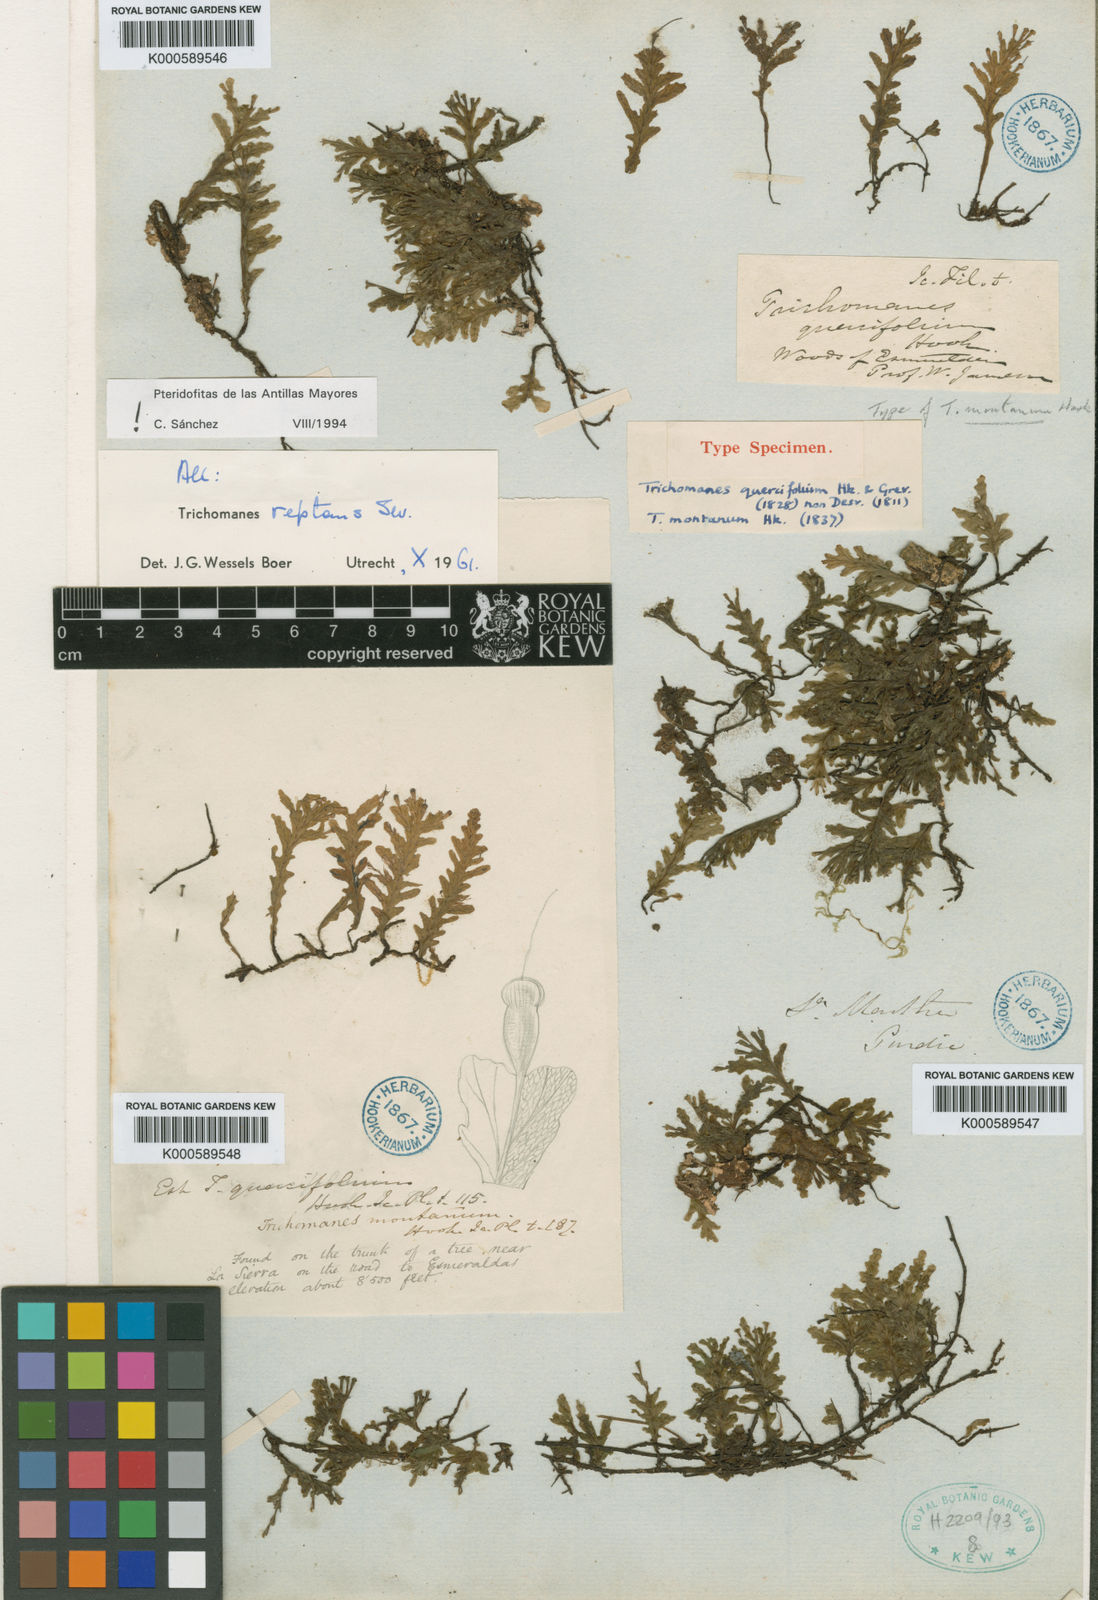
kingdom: Plantae
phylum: Tracheophyta
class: Polypodiopsida
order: Hymenophyllales
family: Hymenophyllaceae
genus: Didymoglossum
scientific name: Didymoglossum reptans
